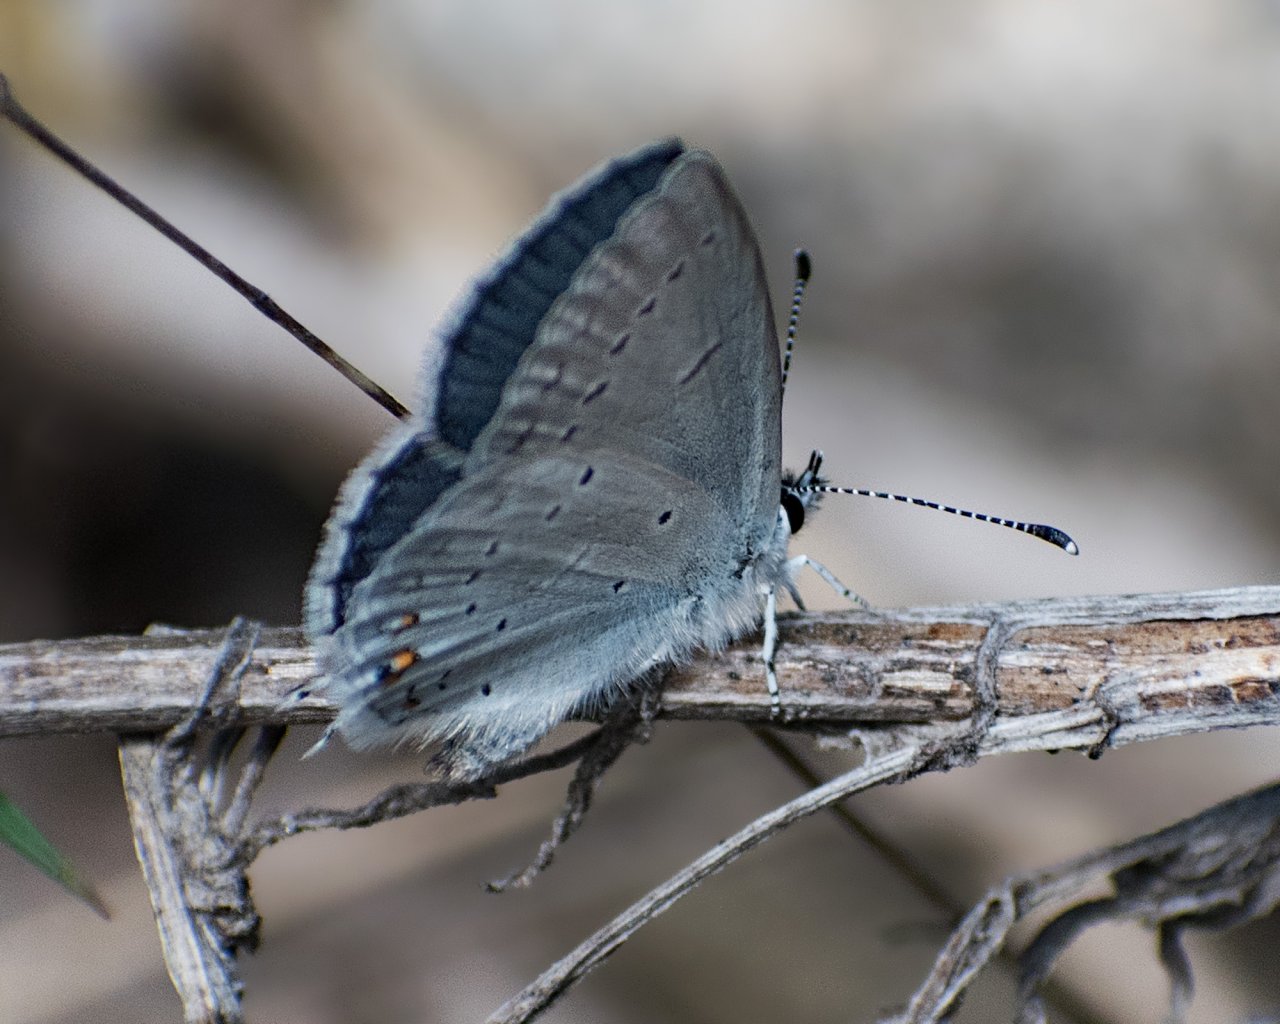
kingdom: Animalia
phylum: Arthropoda
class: Insecta
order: Lepidoptera
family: Lycaenidae
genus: Elkalyce
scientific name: Elkalyce amyntula
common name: Western Tailed-Blue
